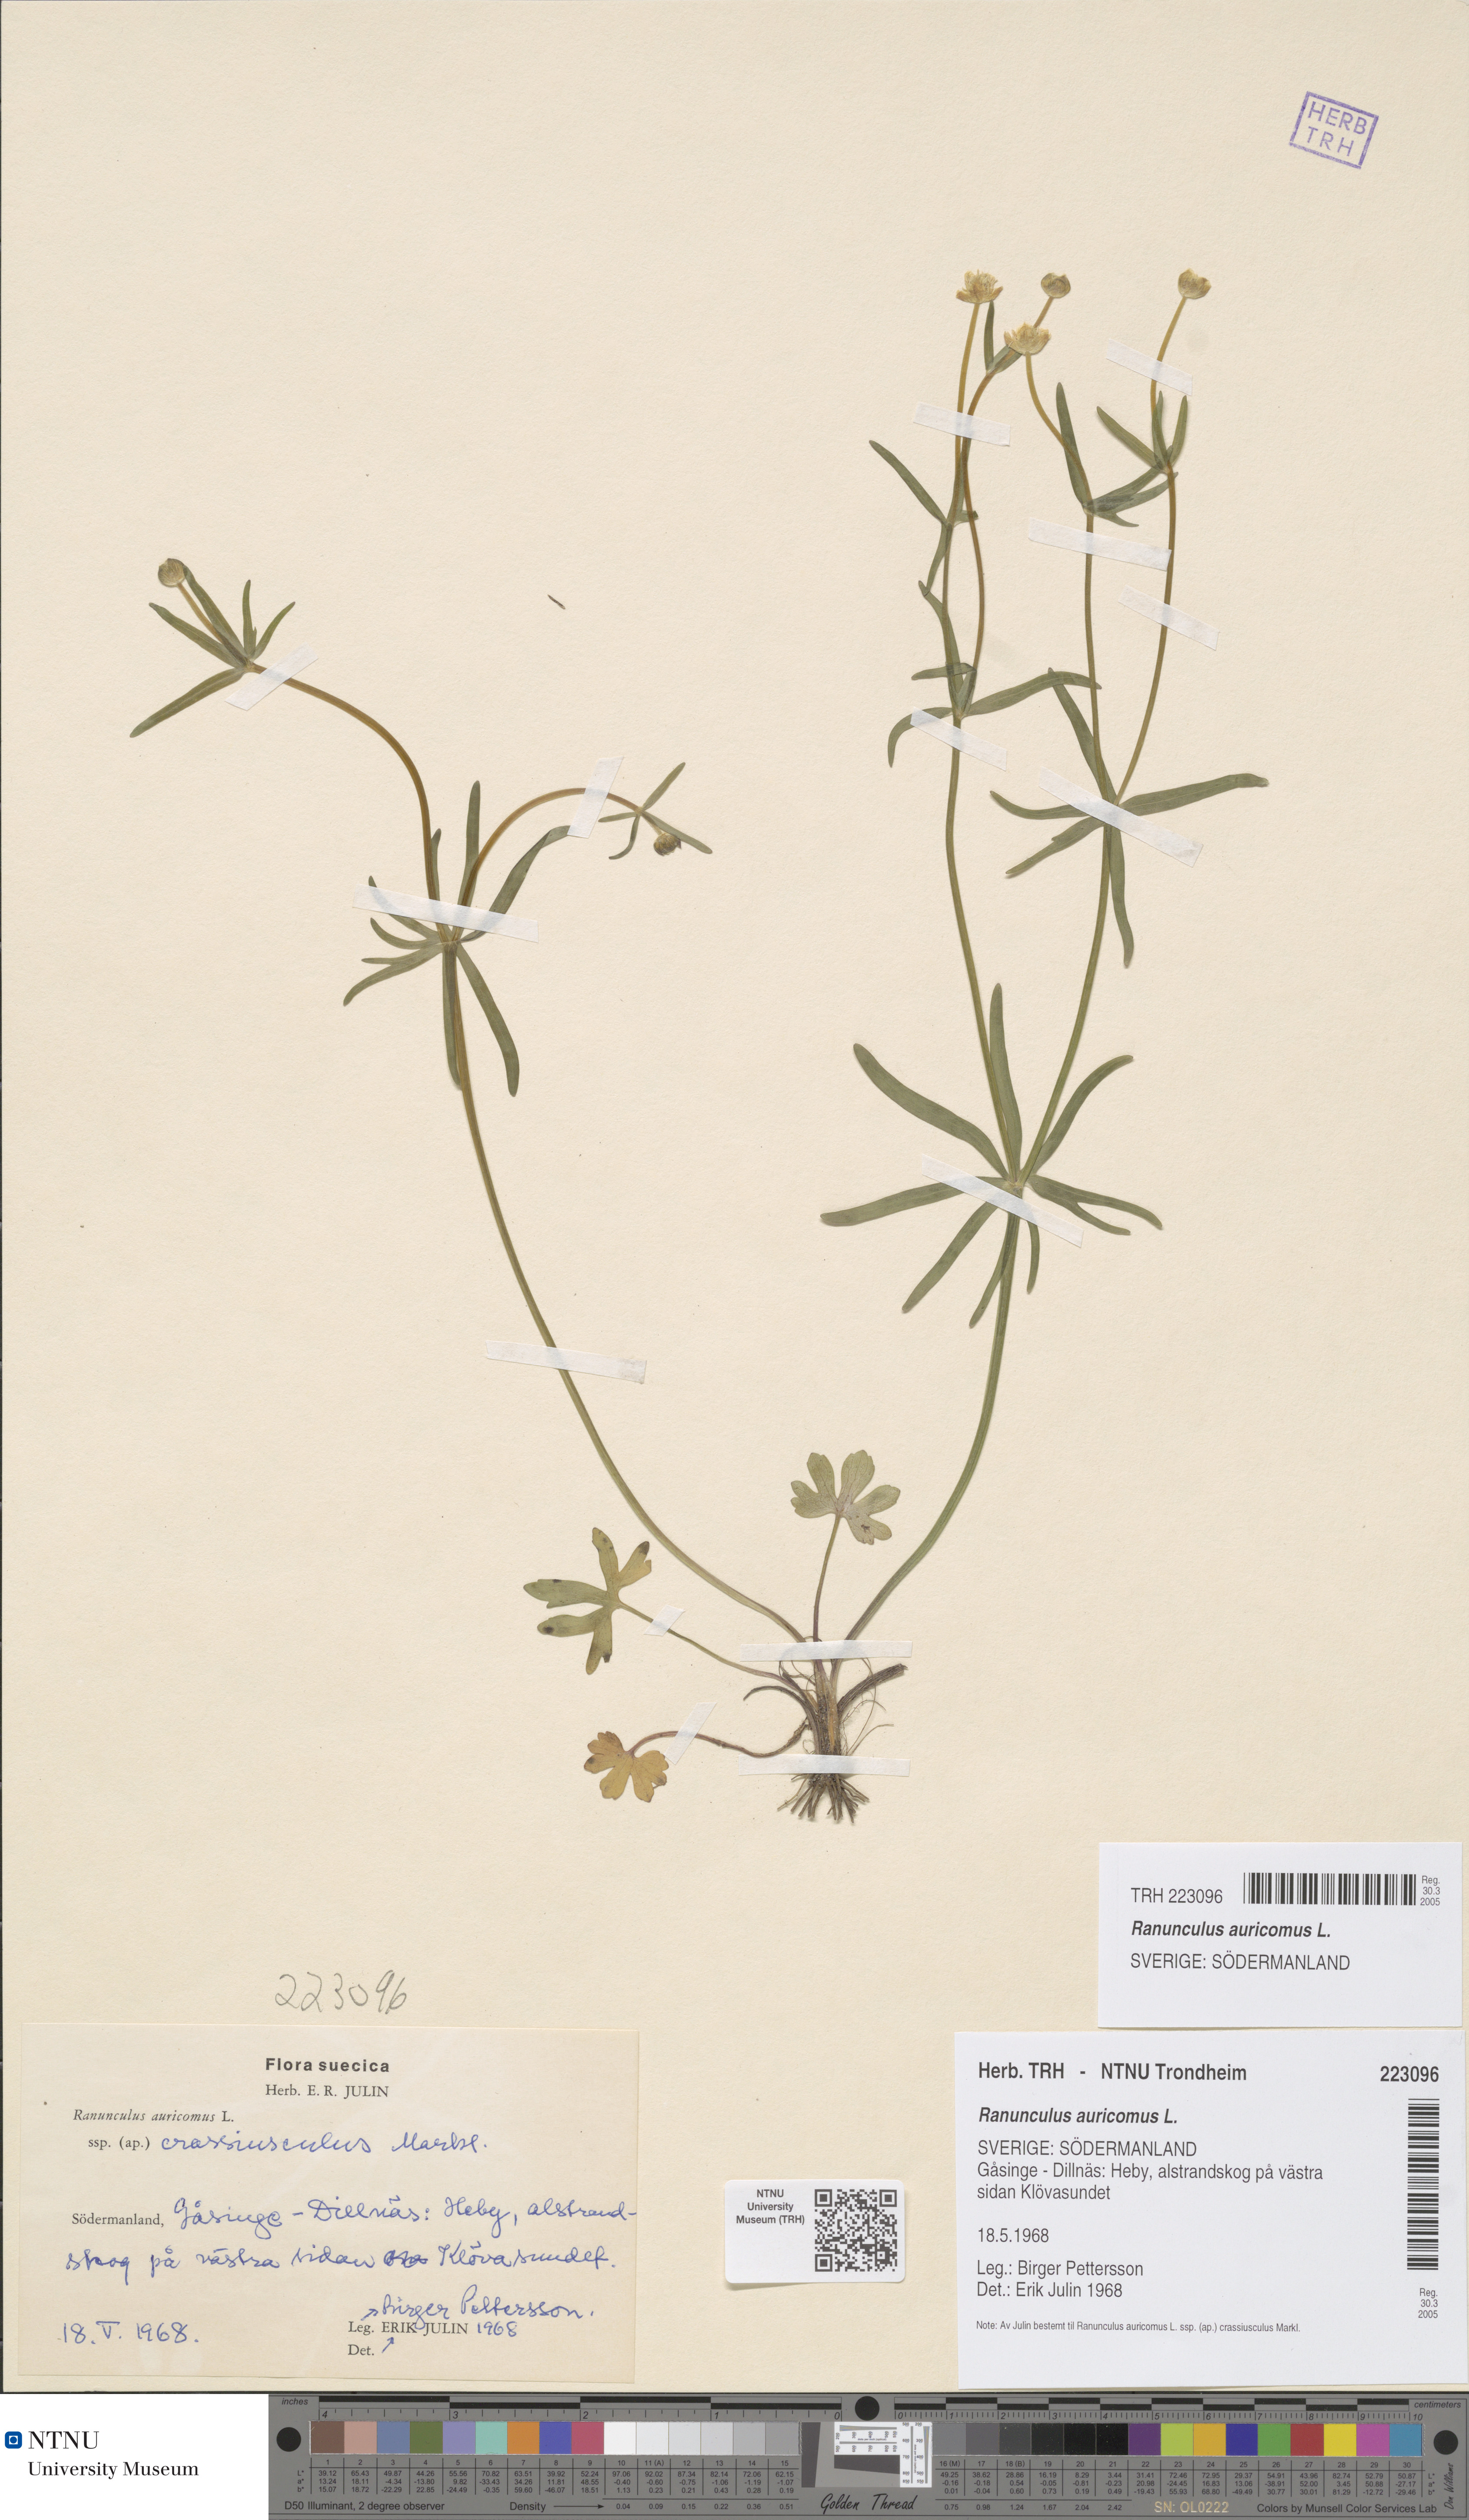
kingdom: Plantae
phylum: Tracheophyta
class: Magnoliopsida
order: Ranunculales
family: Ranunculaceae
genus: Ranunculus
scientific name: Ranunculus auricomus
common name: Goldilocks buttercup
